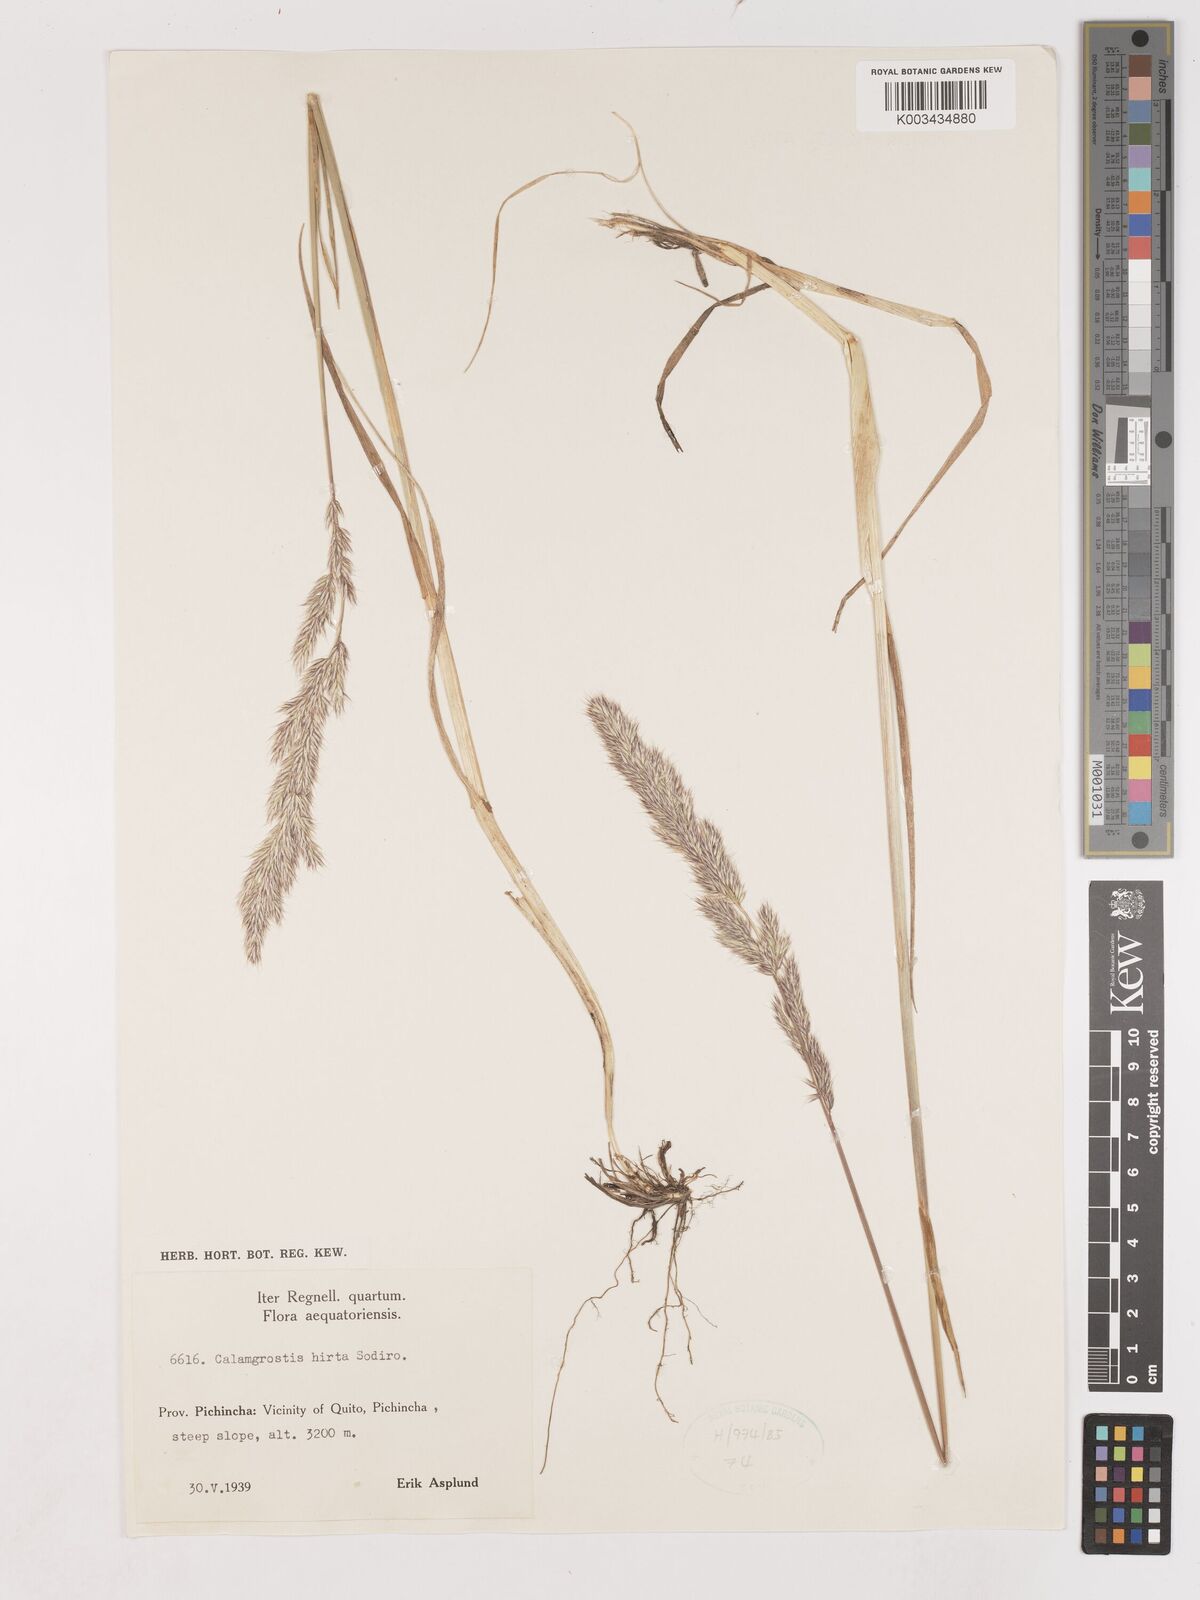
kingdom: Plantae
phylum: Tracheophyta
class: Liliopsida
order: Poales
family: Poaceae
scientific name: Poaceae
